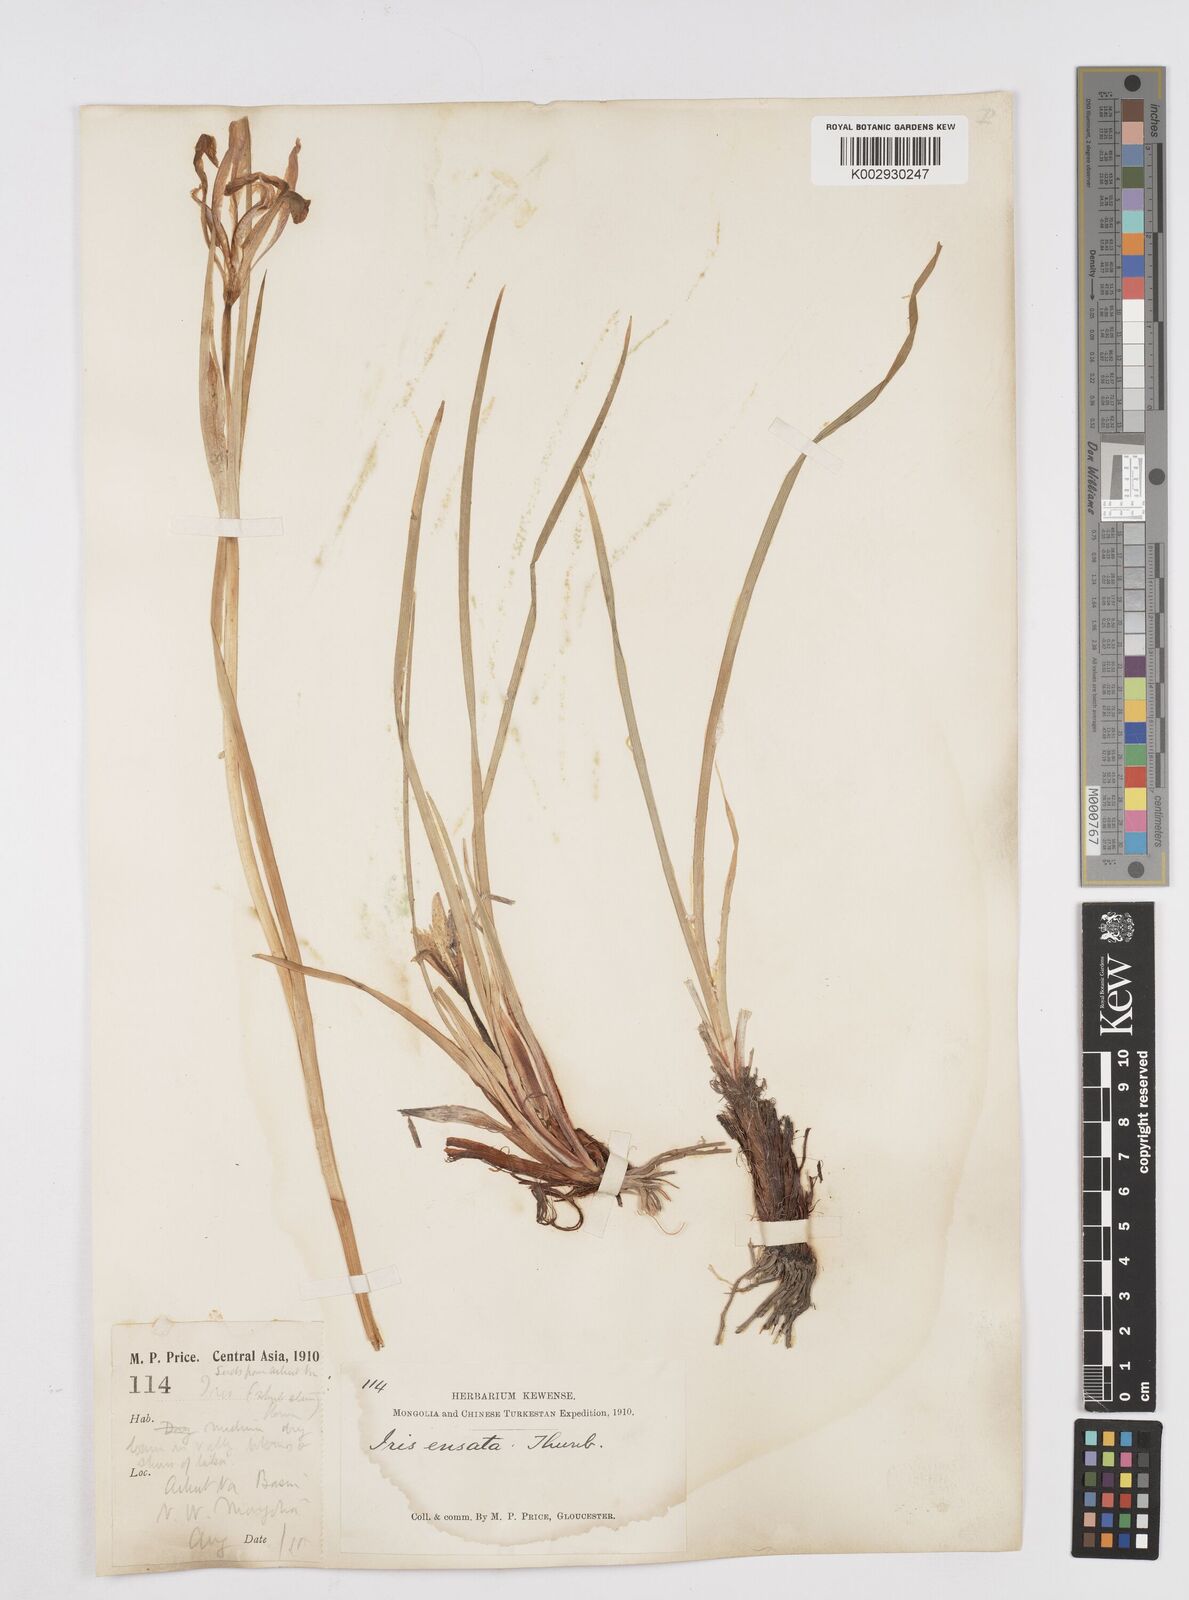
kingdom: Plantae
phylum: Tracheophyta
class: Liliopsida
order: Asparagales
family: Iridaceae
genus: Iris
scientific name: Iris lactea
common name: White-flower chinese iris
